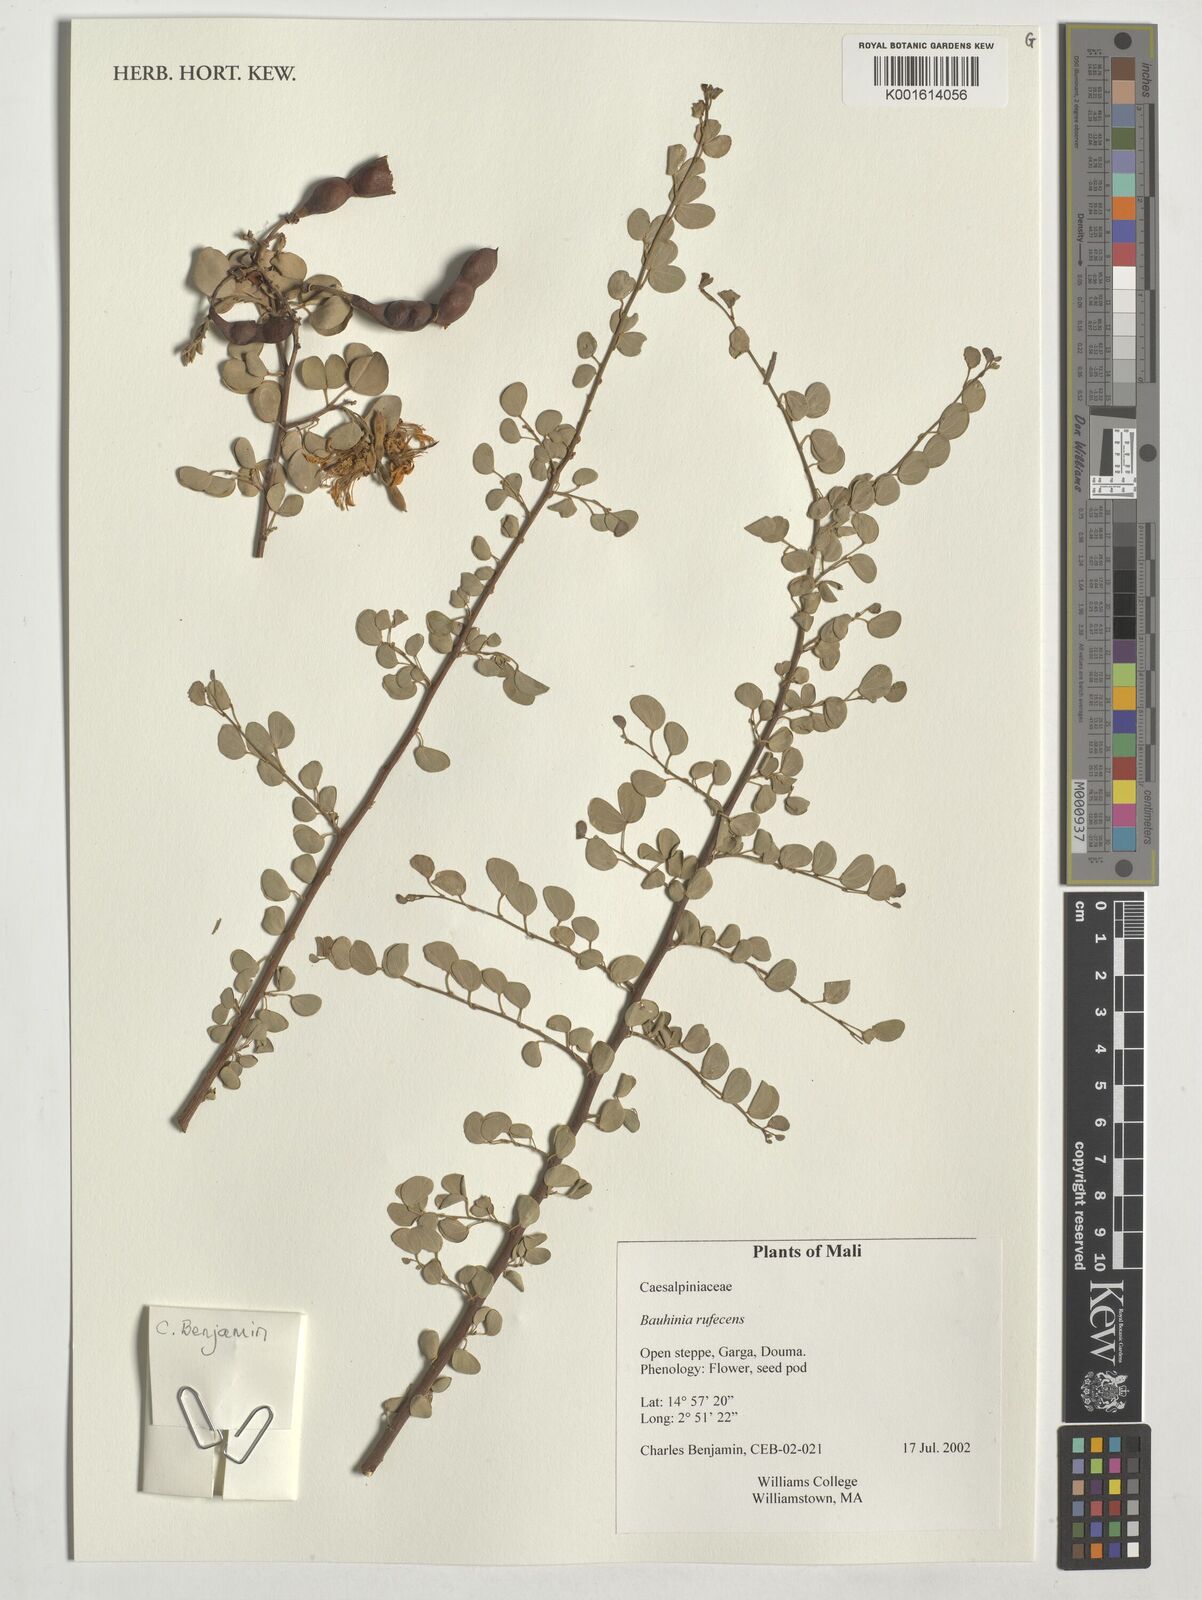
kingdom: Plantae
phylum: Tracheophyta
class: Magnoliopsida
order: Fabales
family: Fabaceae
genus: Bauhinia
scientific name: Bauhinia rufescens
